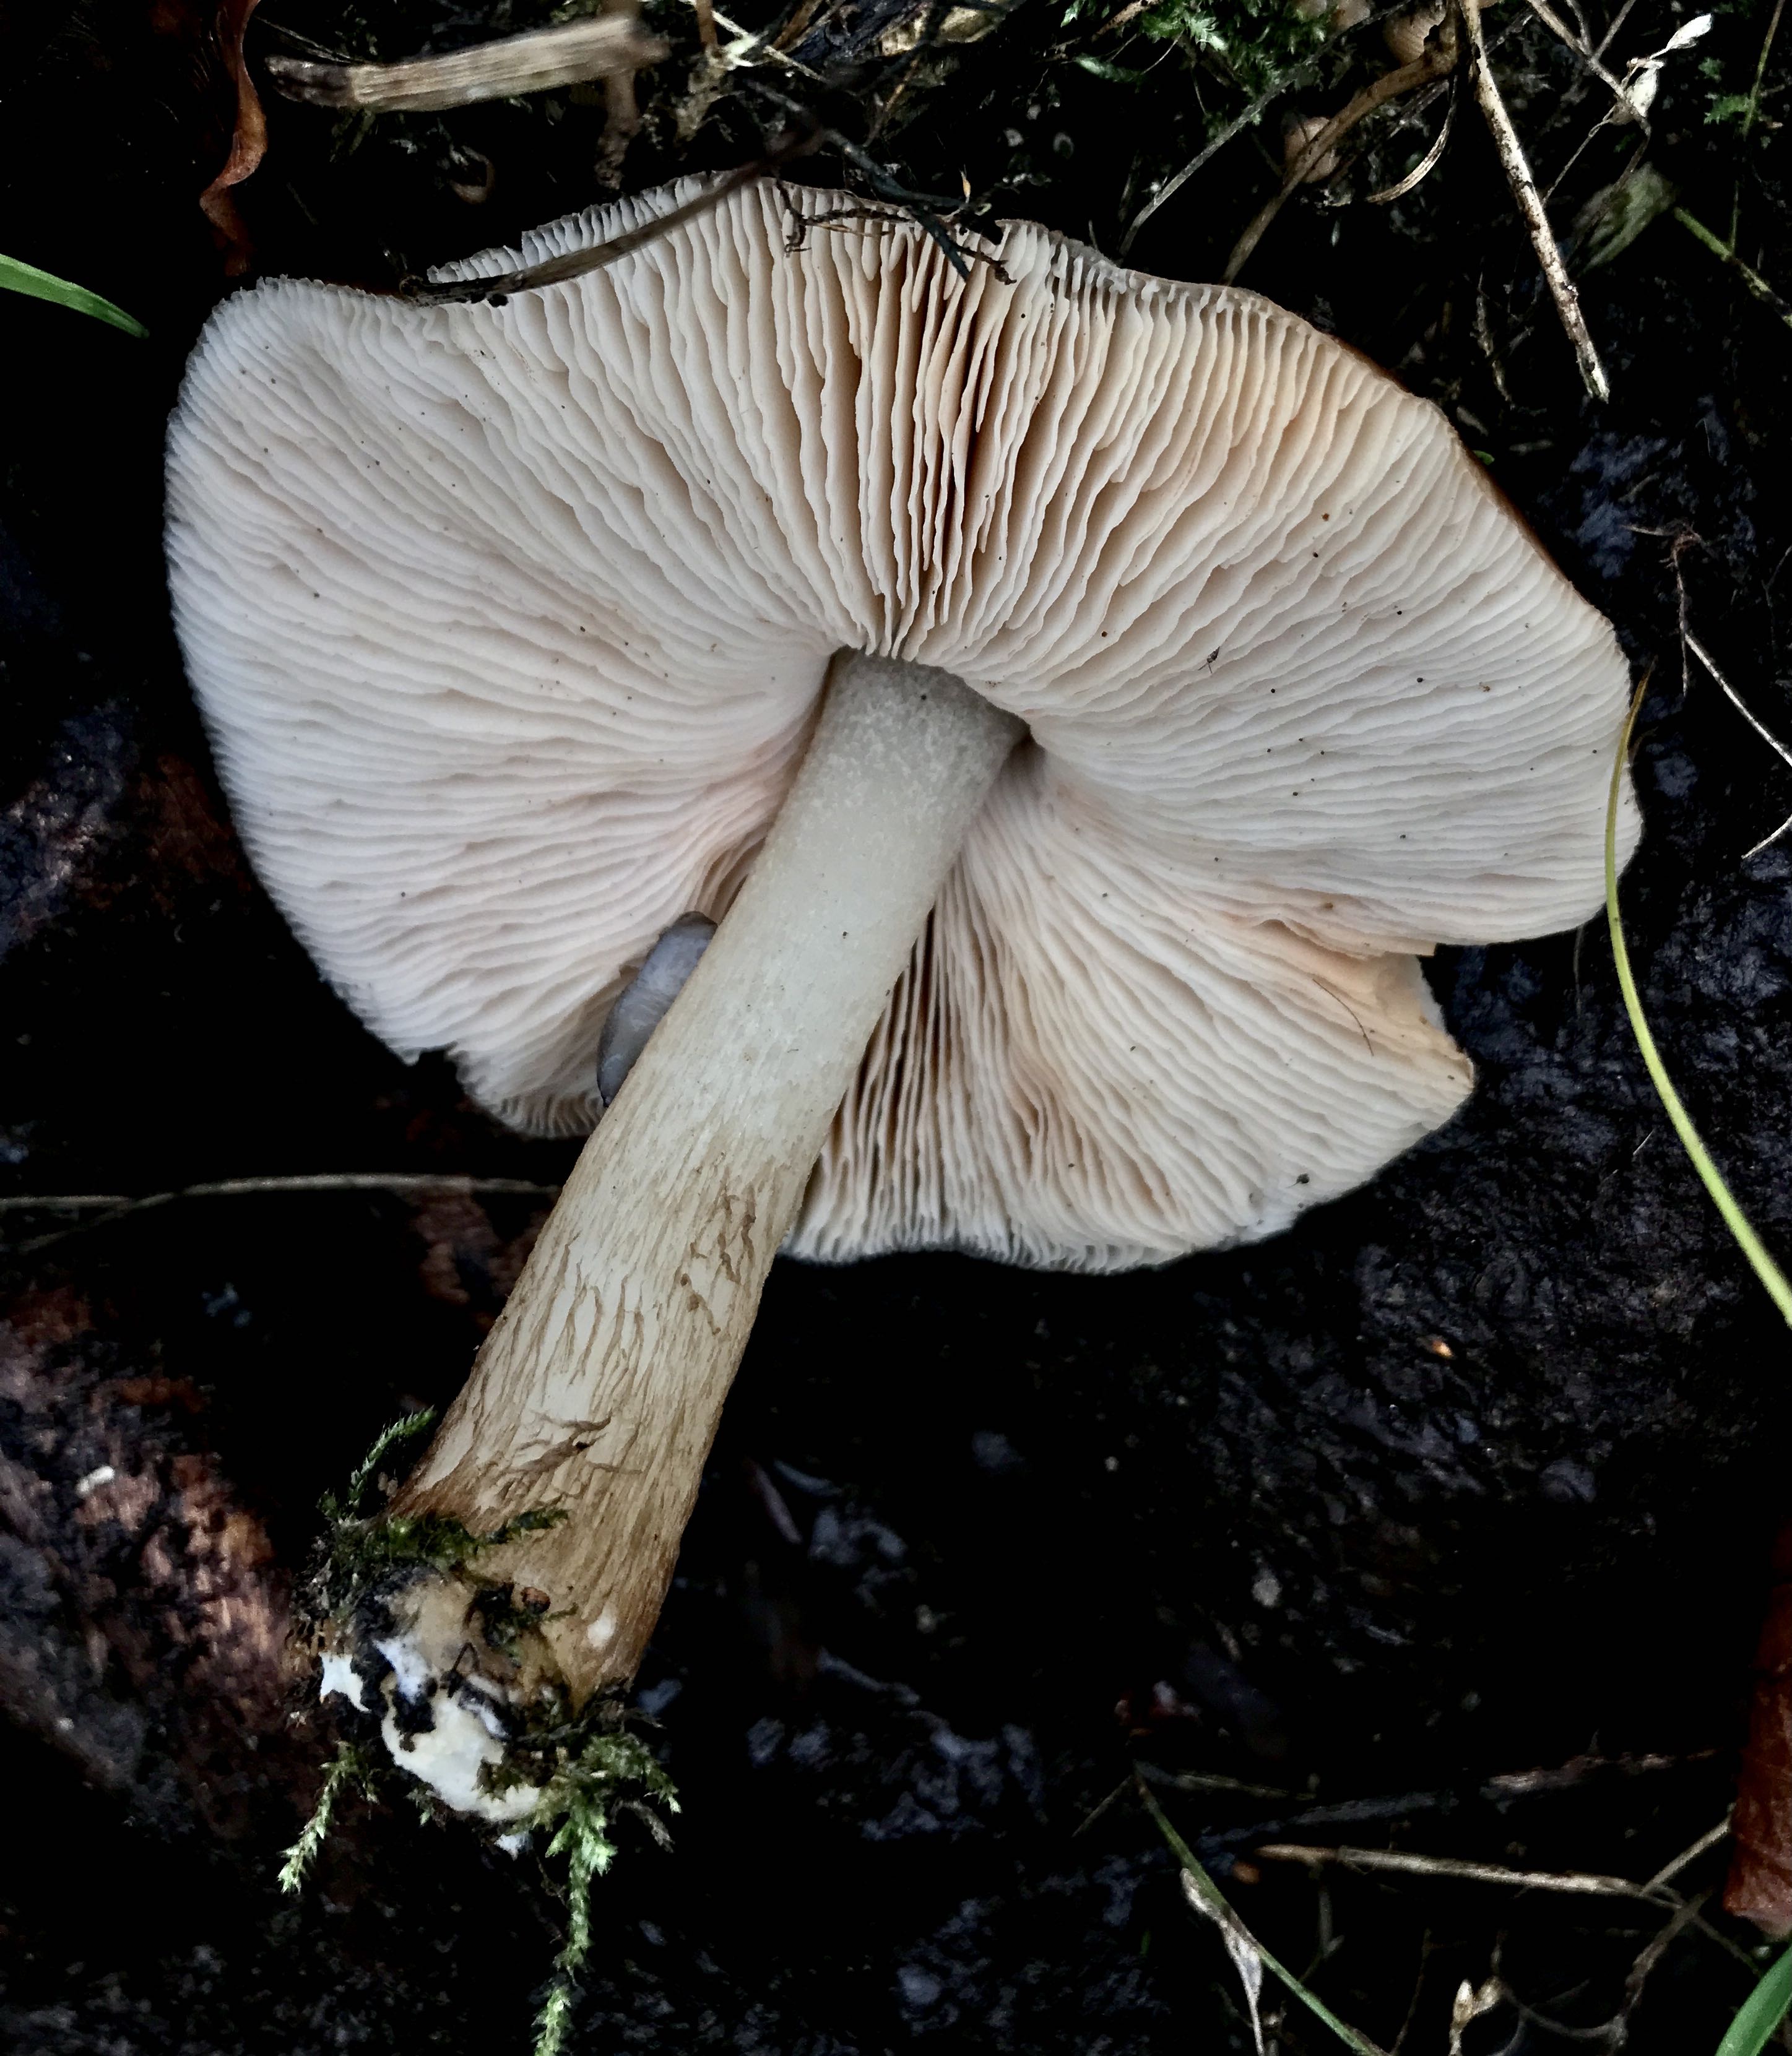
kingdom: Fungi
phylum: Basidiomycota
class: Agaricomycetes
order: Agaricales
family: Pluteaceae
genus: Pluteus
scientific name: Pluteus cervinus
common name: sodfarvet skærmhat
